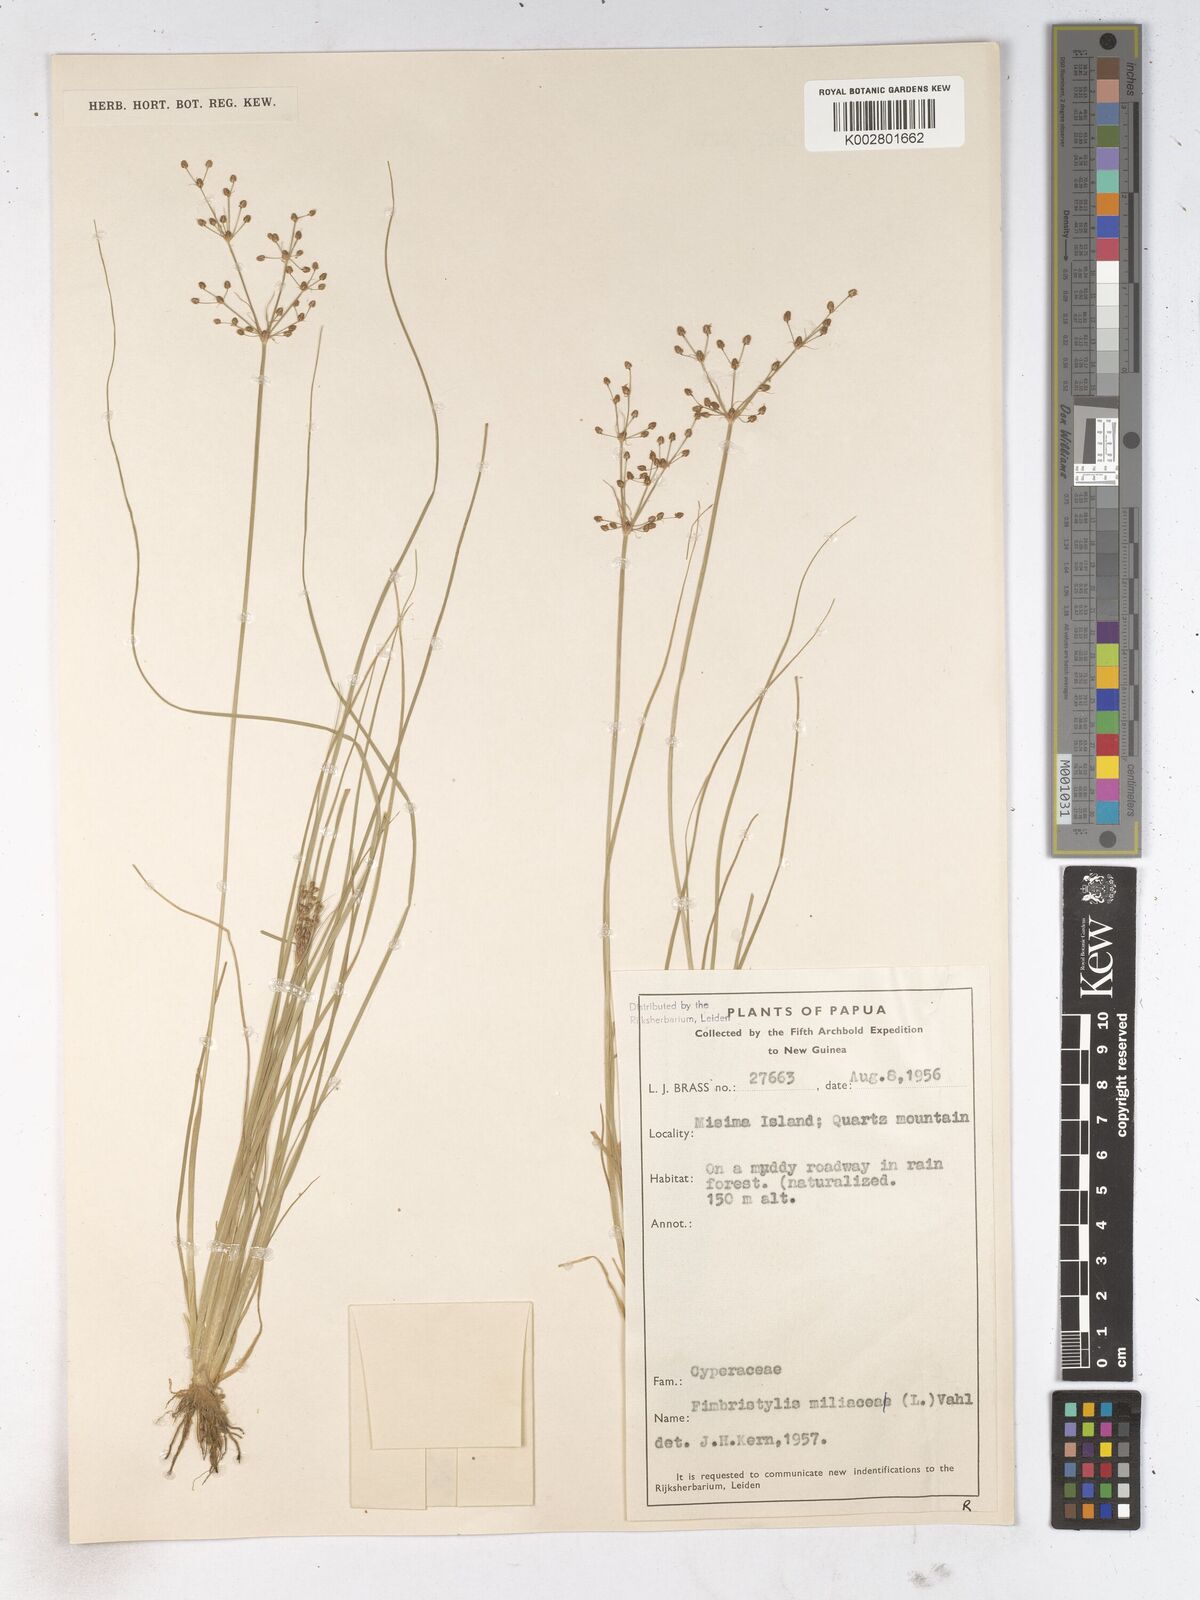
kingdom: Plantae
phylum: Tracheophyta
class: Liliopsida
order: Poales
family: Cyperaceae
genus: Fimbristylis
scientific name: Fimbristylis littoralis
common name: Fimbry
